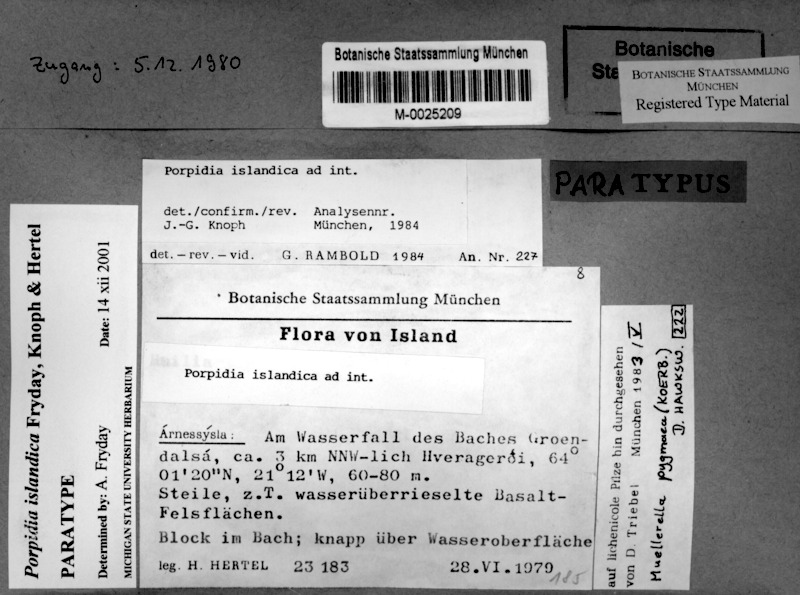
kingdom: Fungi
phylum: Ascomycota
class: Eurotiomycetes
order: Verrucariales
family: Verrucariaceae
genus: Muellerella
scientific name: Muellerella pygmaea
